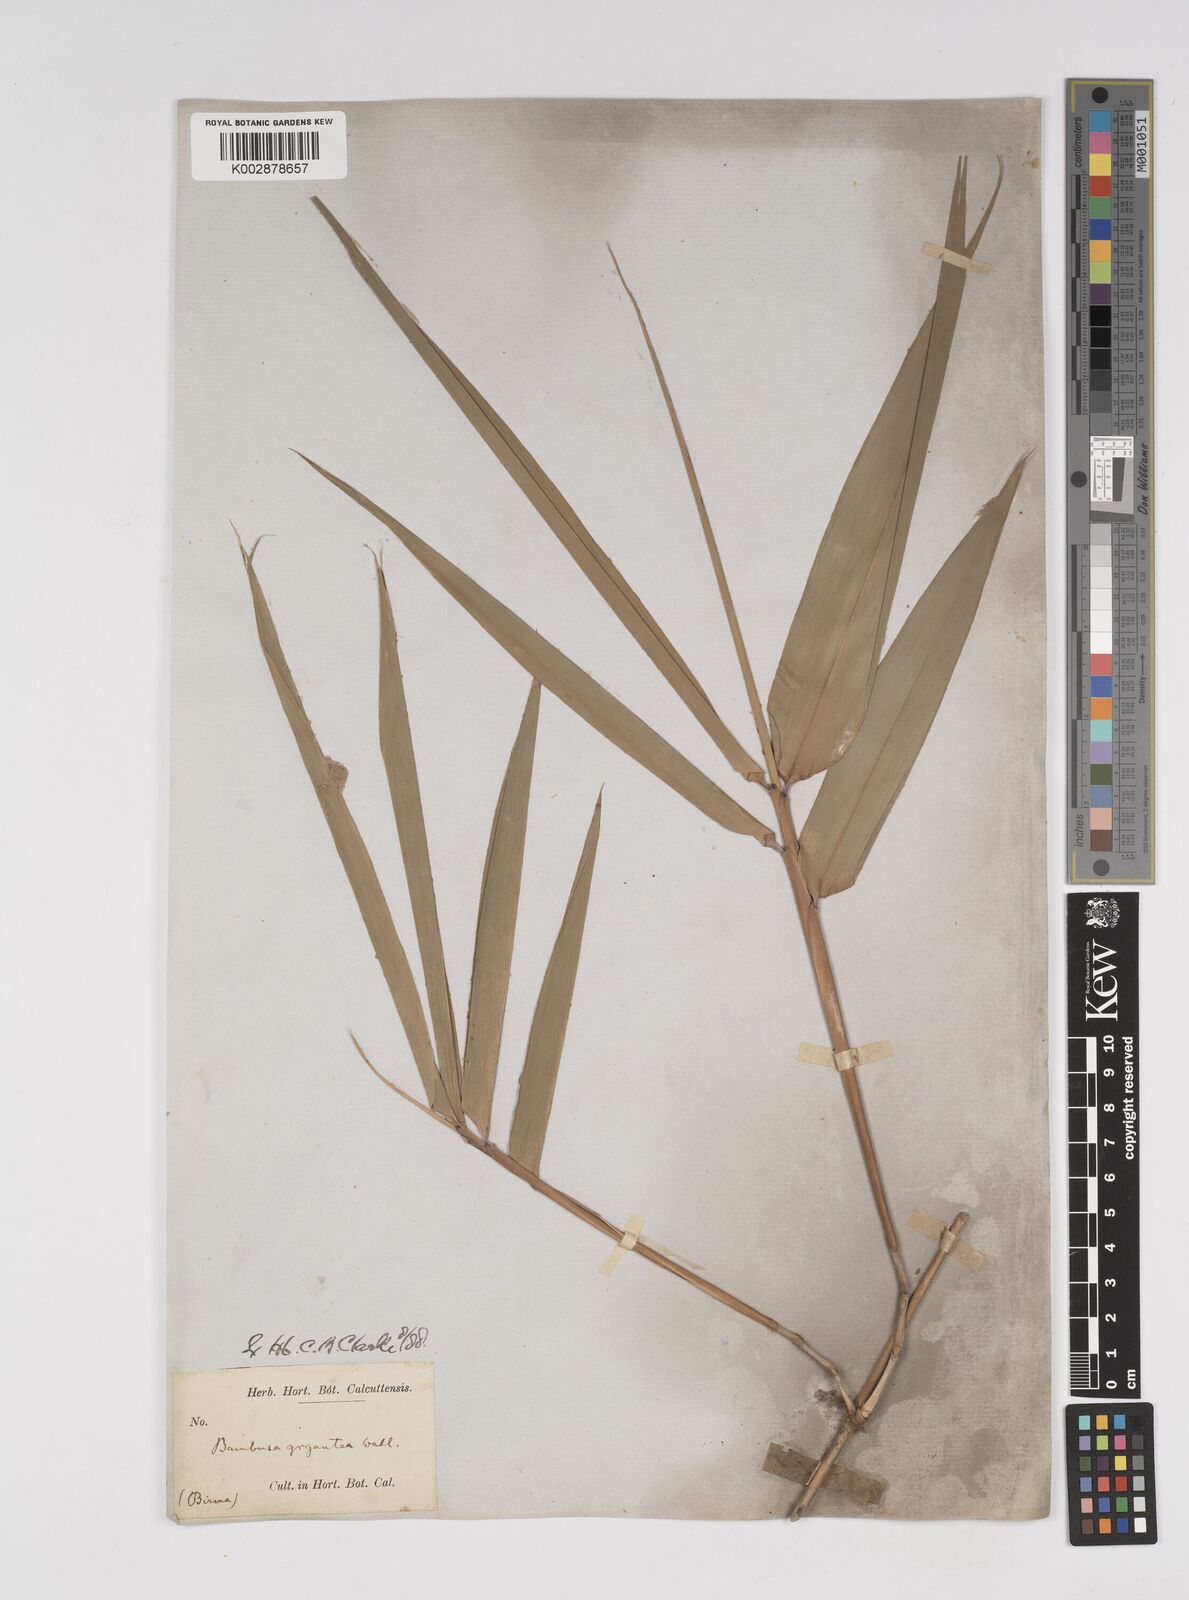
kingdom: Plantae
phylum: Tracheophyta
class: Liliopsida
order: Poales
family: Poaceae
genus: Dendrocalamus
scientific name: Dendrocalamus giganteus
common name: Giant bamboo
